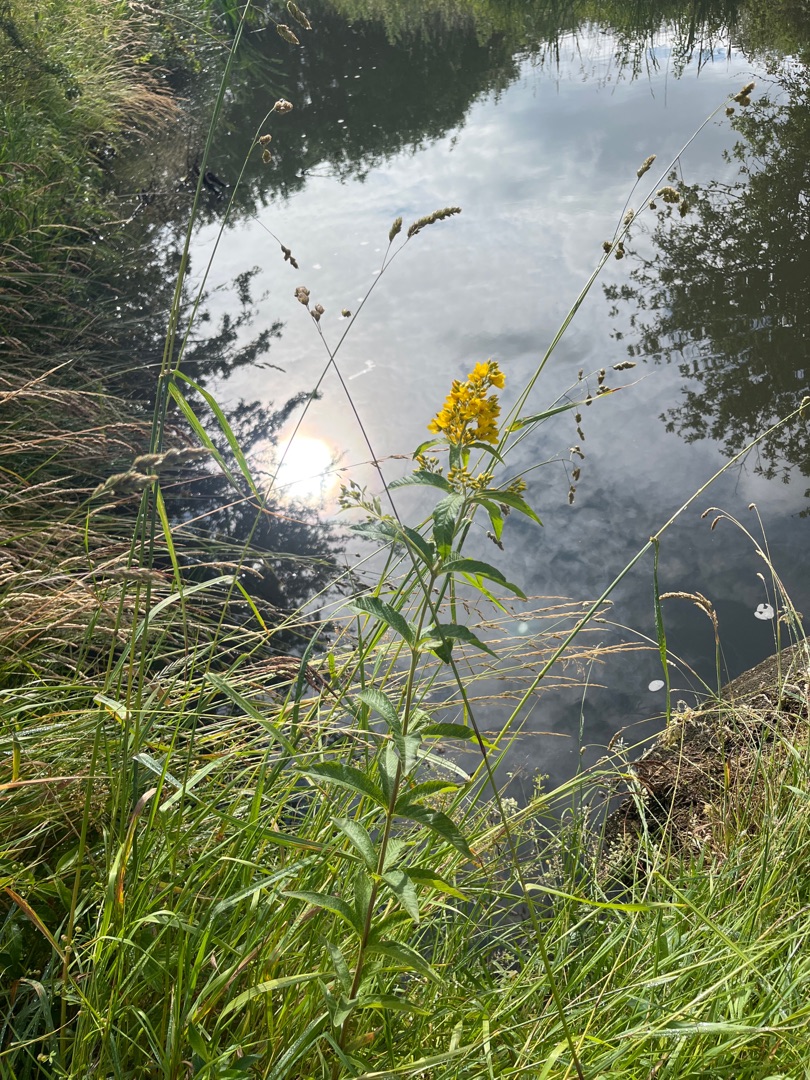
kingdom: Plantae
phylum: Tracheophyta
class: Magnoliopsida
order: Ericales
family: Primulaceae
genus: Lysimachia
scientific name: Lysimachia vulgaris
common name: Almindelig fredløs
